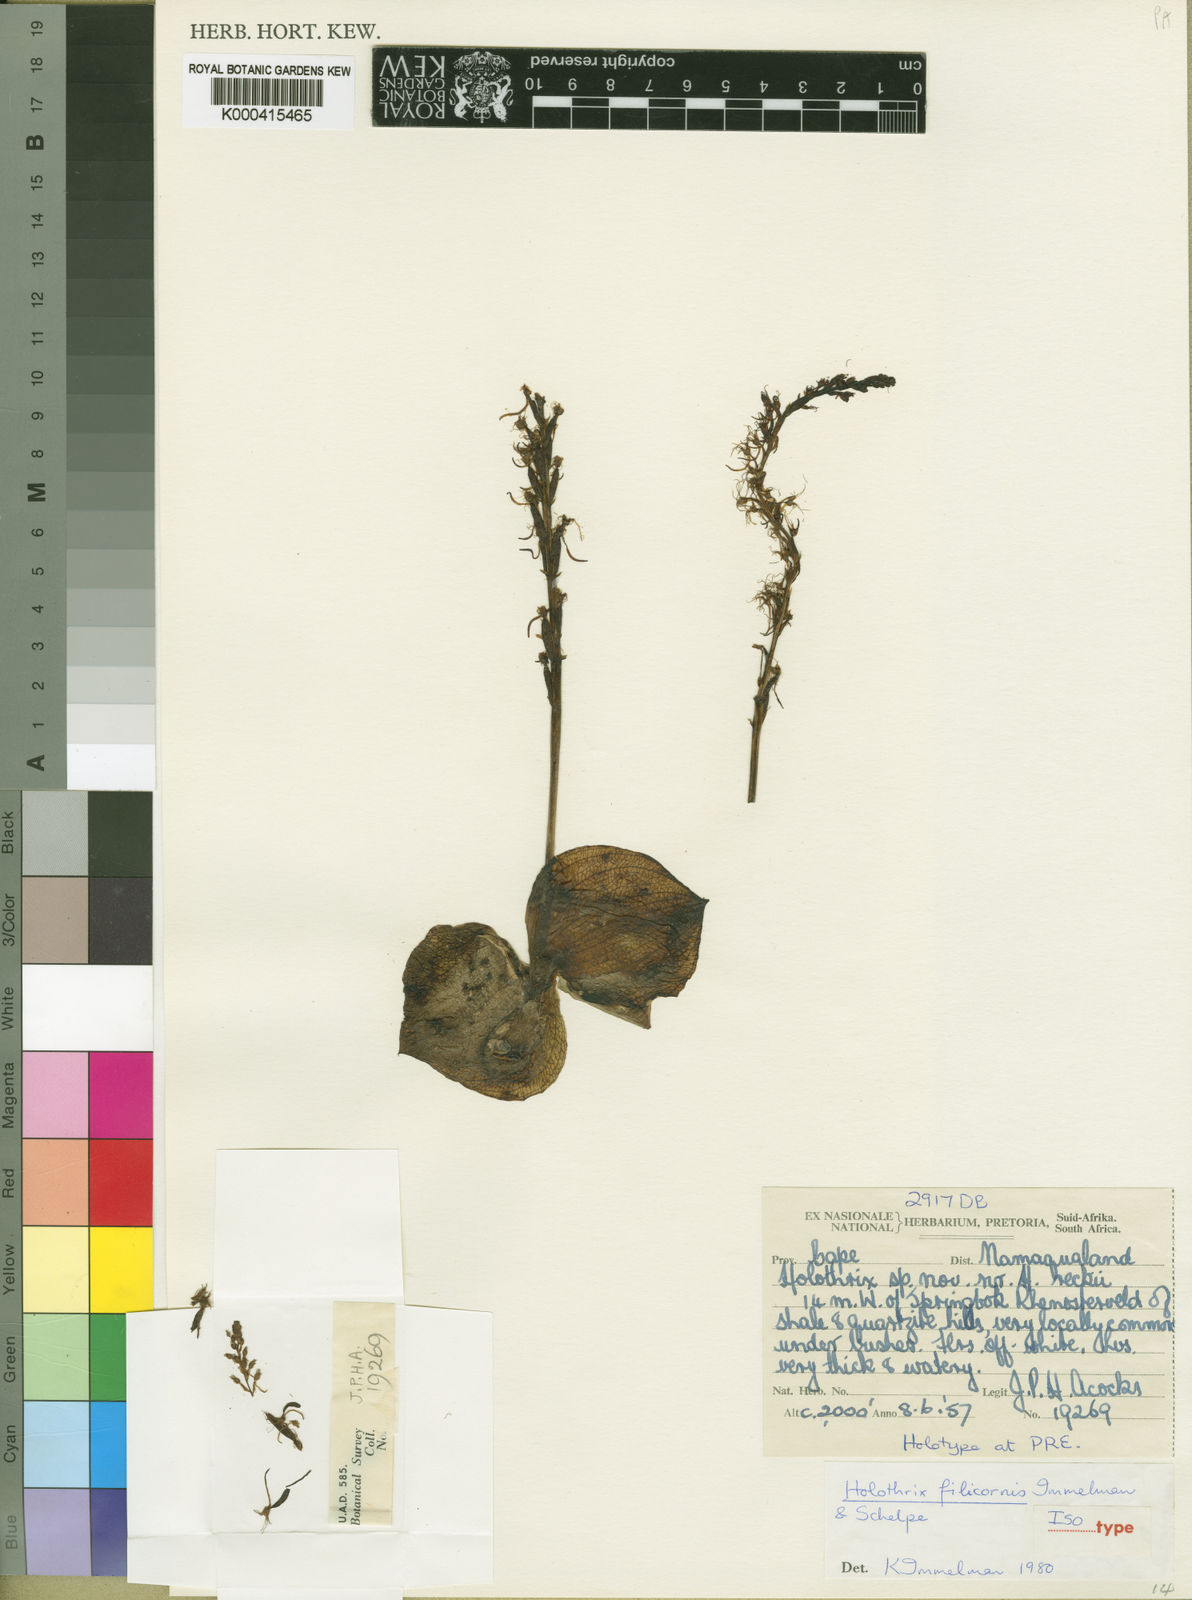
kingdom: Plantae
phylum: Tracheophyta
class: Liliopsida
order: Asparagales
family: Orchidaceae
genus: Holothrix
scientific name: Holothrix filicornis
